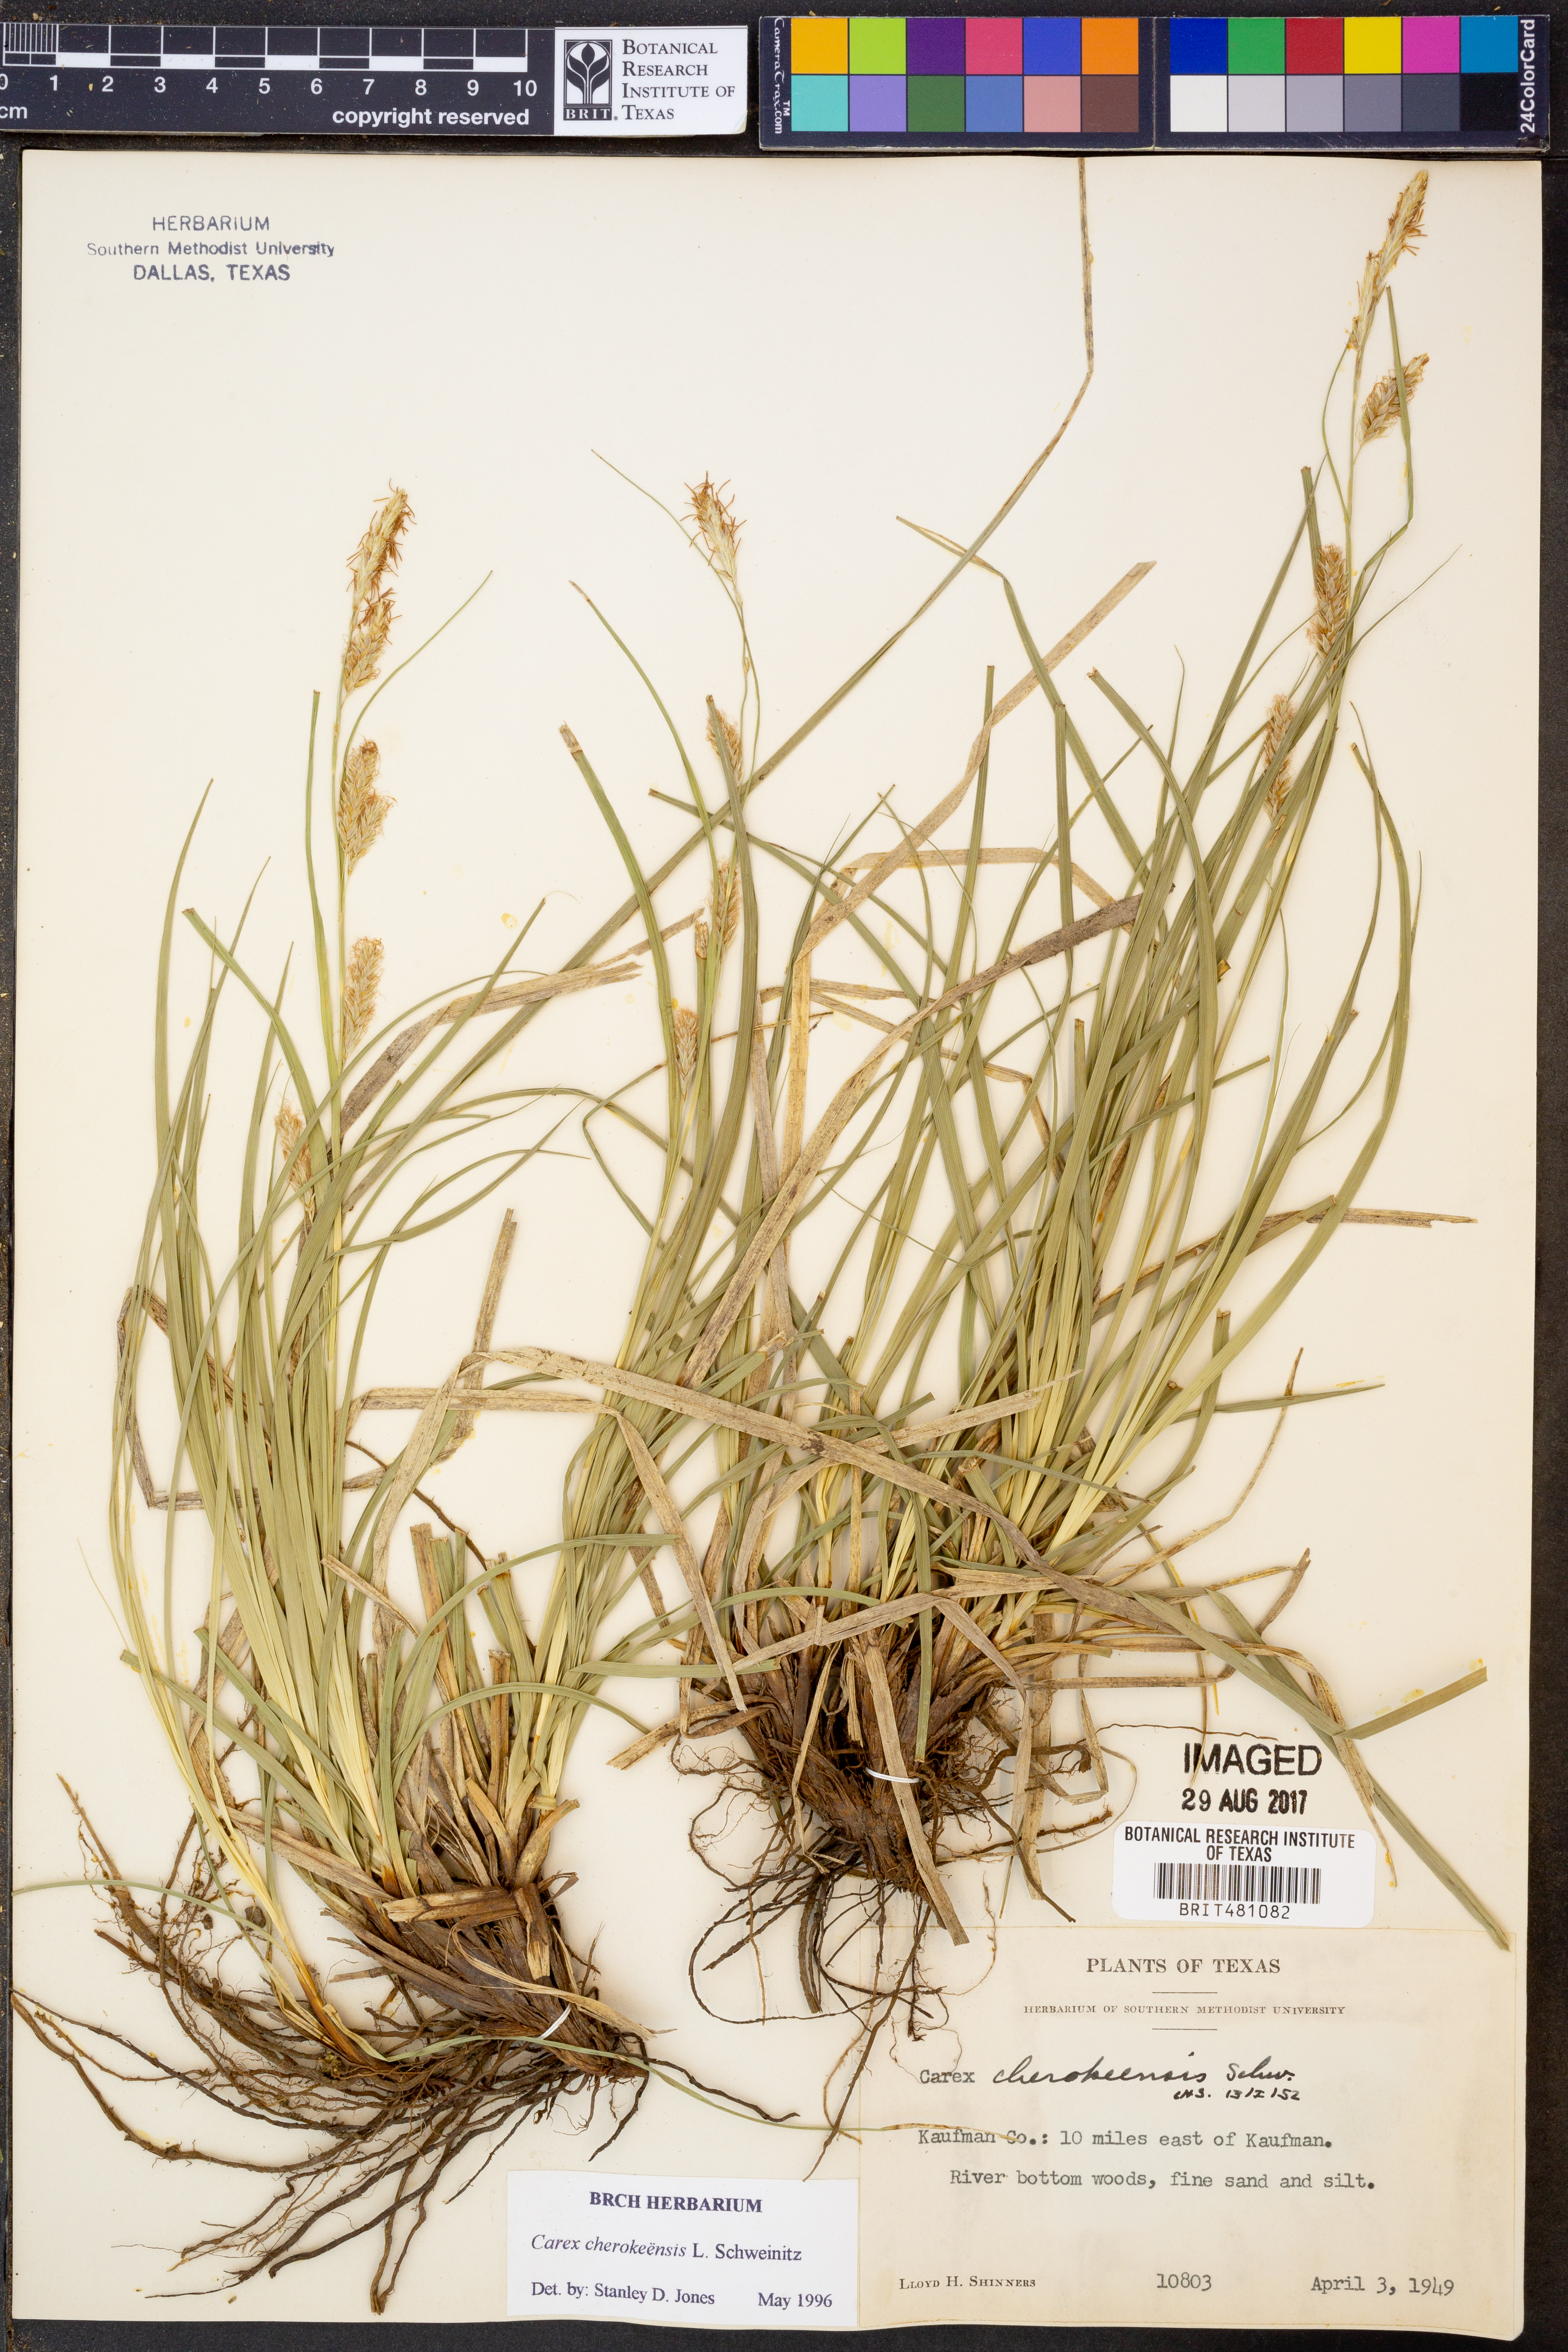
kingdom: Plantae
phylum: Tracheophyta
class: Liliopsida
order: Poales
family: Cyperaceae
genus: Carex
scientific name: Carex cherokeensis
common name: Cherokee sedge
